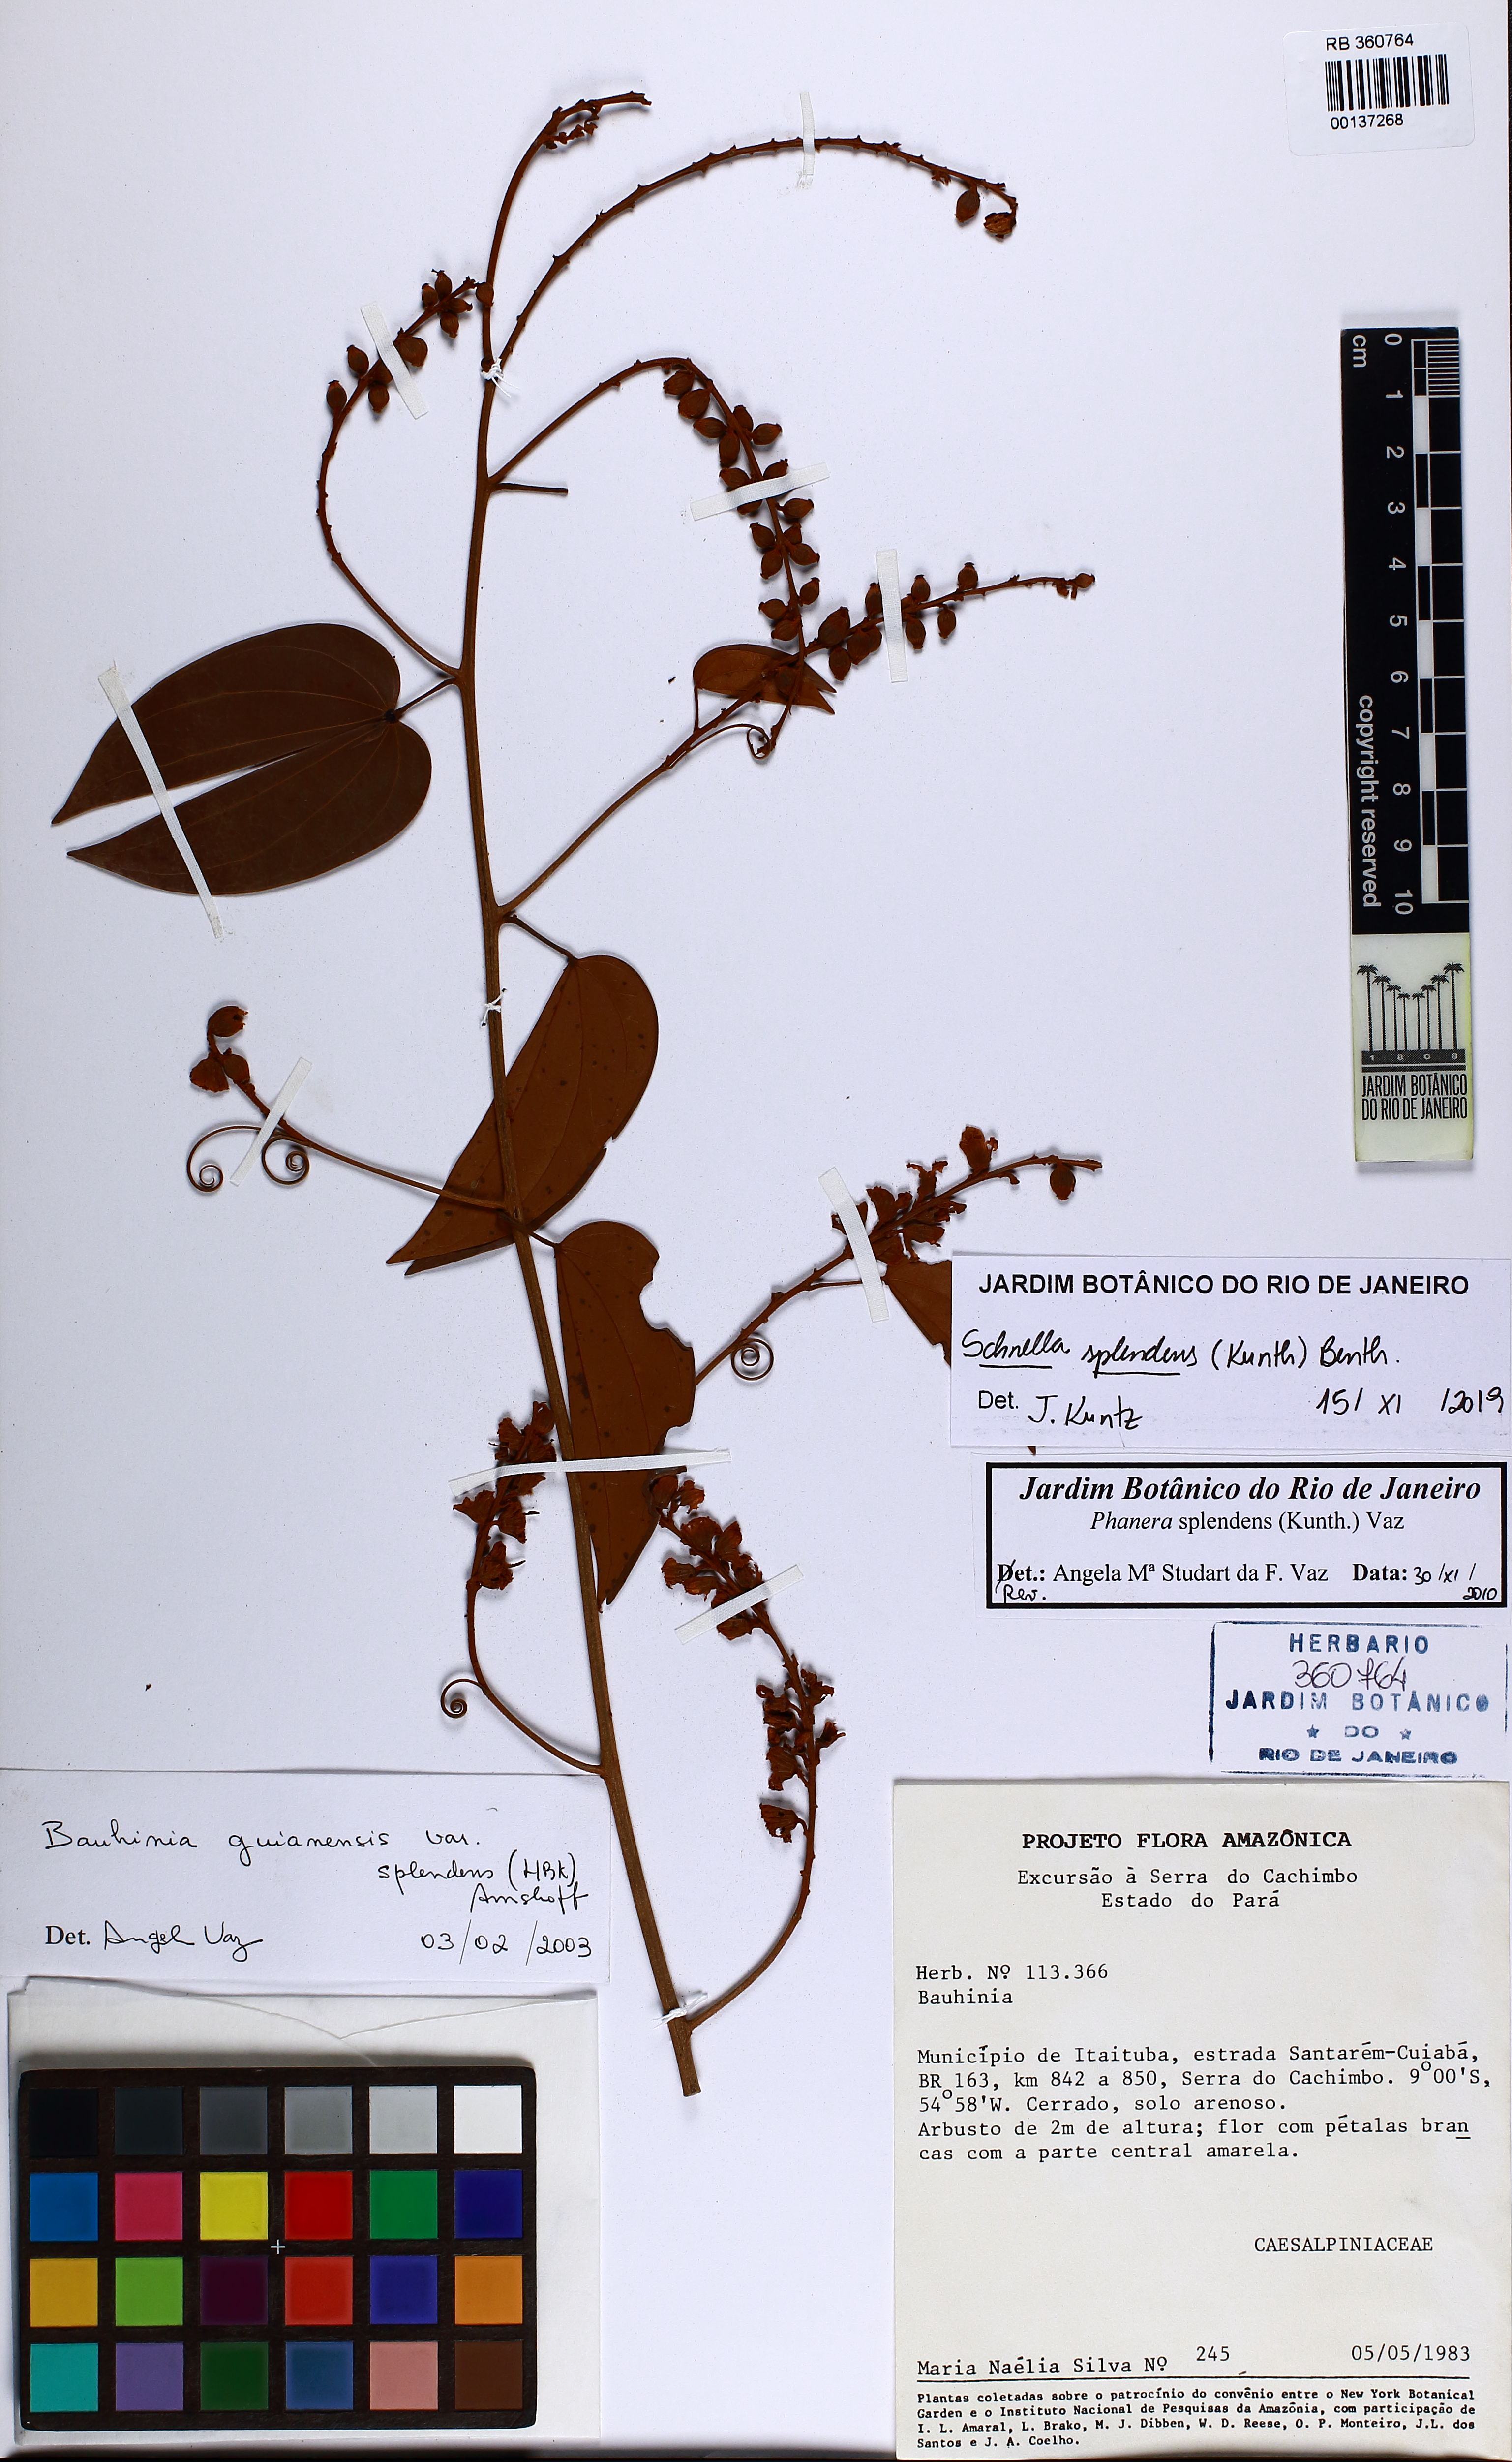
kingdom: Plantae
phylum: Tracheophyta
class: Magnoliopsida
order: Fabales
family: Fabaceae
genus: Schnella
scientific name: Schnella splendens
